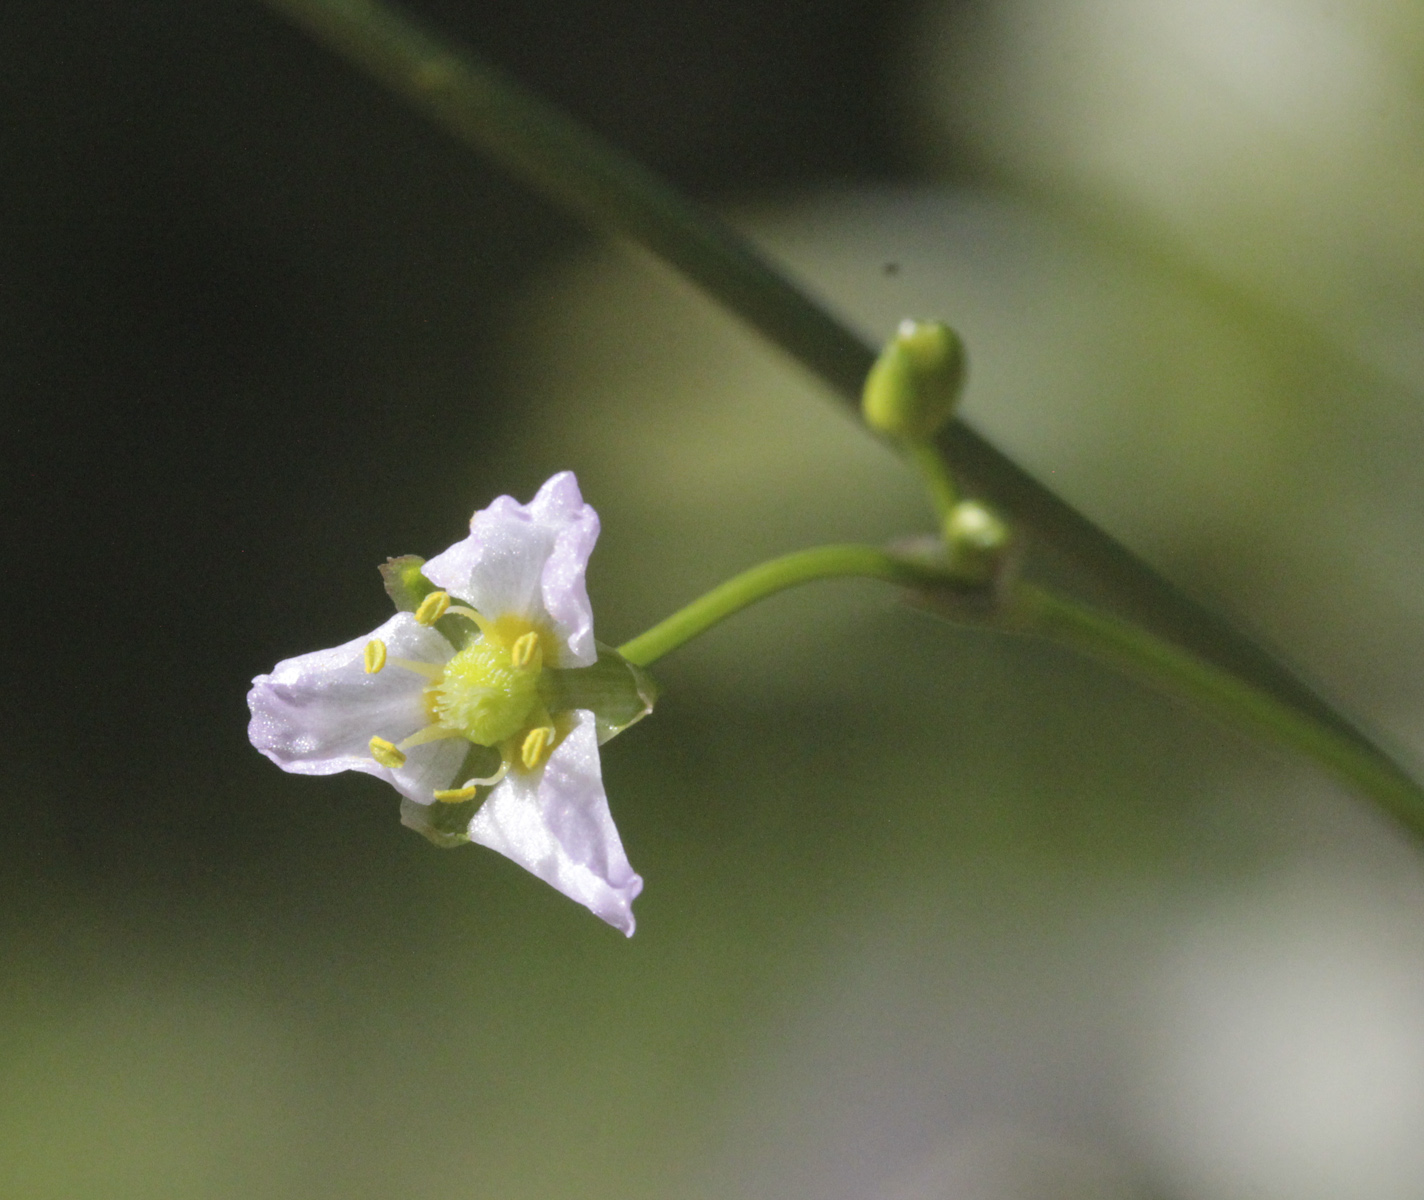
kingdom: Plantae
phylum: Tracheophyta
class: Liliopsida
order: Alismatales
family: Alismataceae
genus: Alisma
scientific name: Alisma plantago-aquatica
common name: Water-plantain
